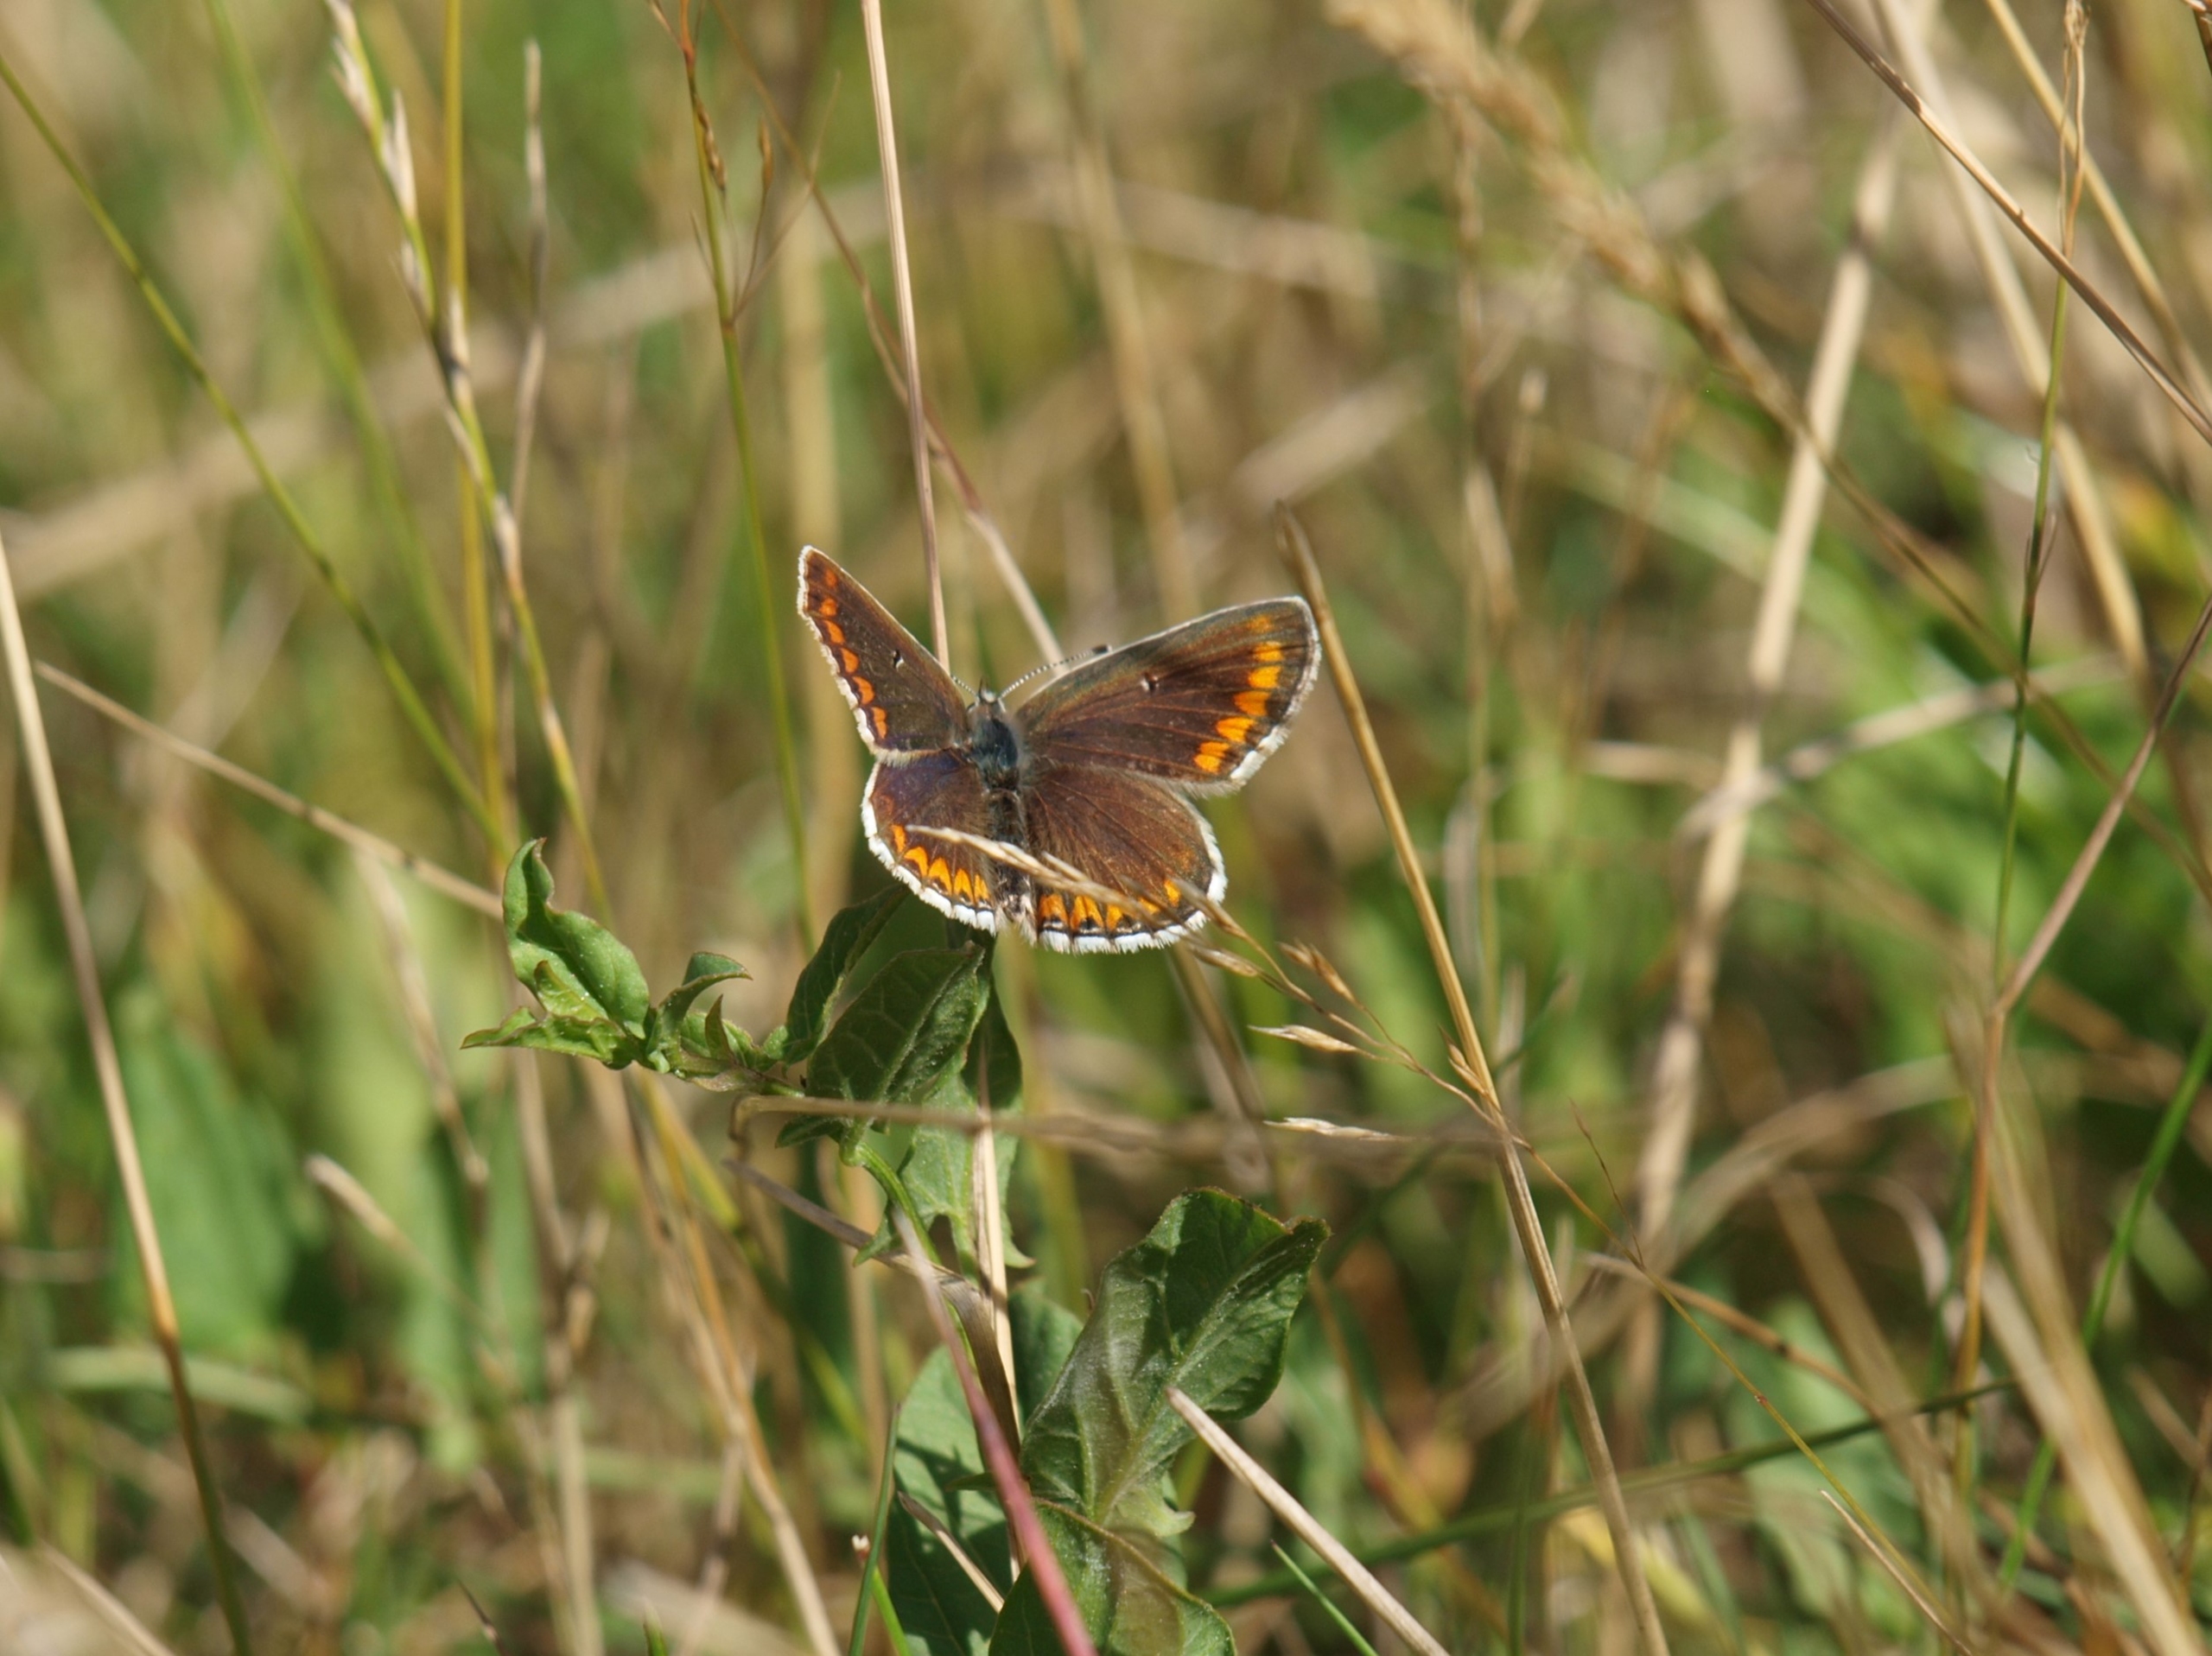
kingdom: Animalia
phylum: Arthropoda
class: Insecta
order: Lepidoptera
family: Lycaenidae
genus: Aricia
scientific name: Aricia agestis
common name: Rødplettet blåfugl
